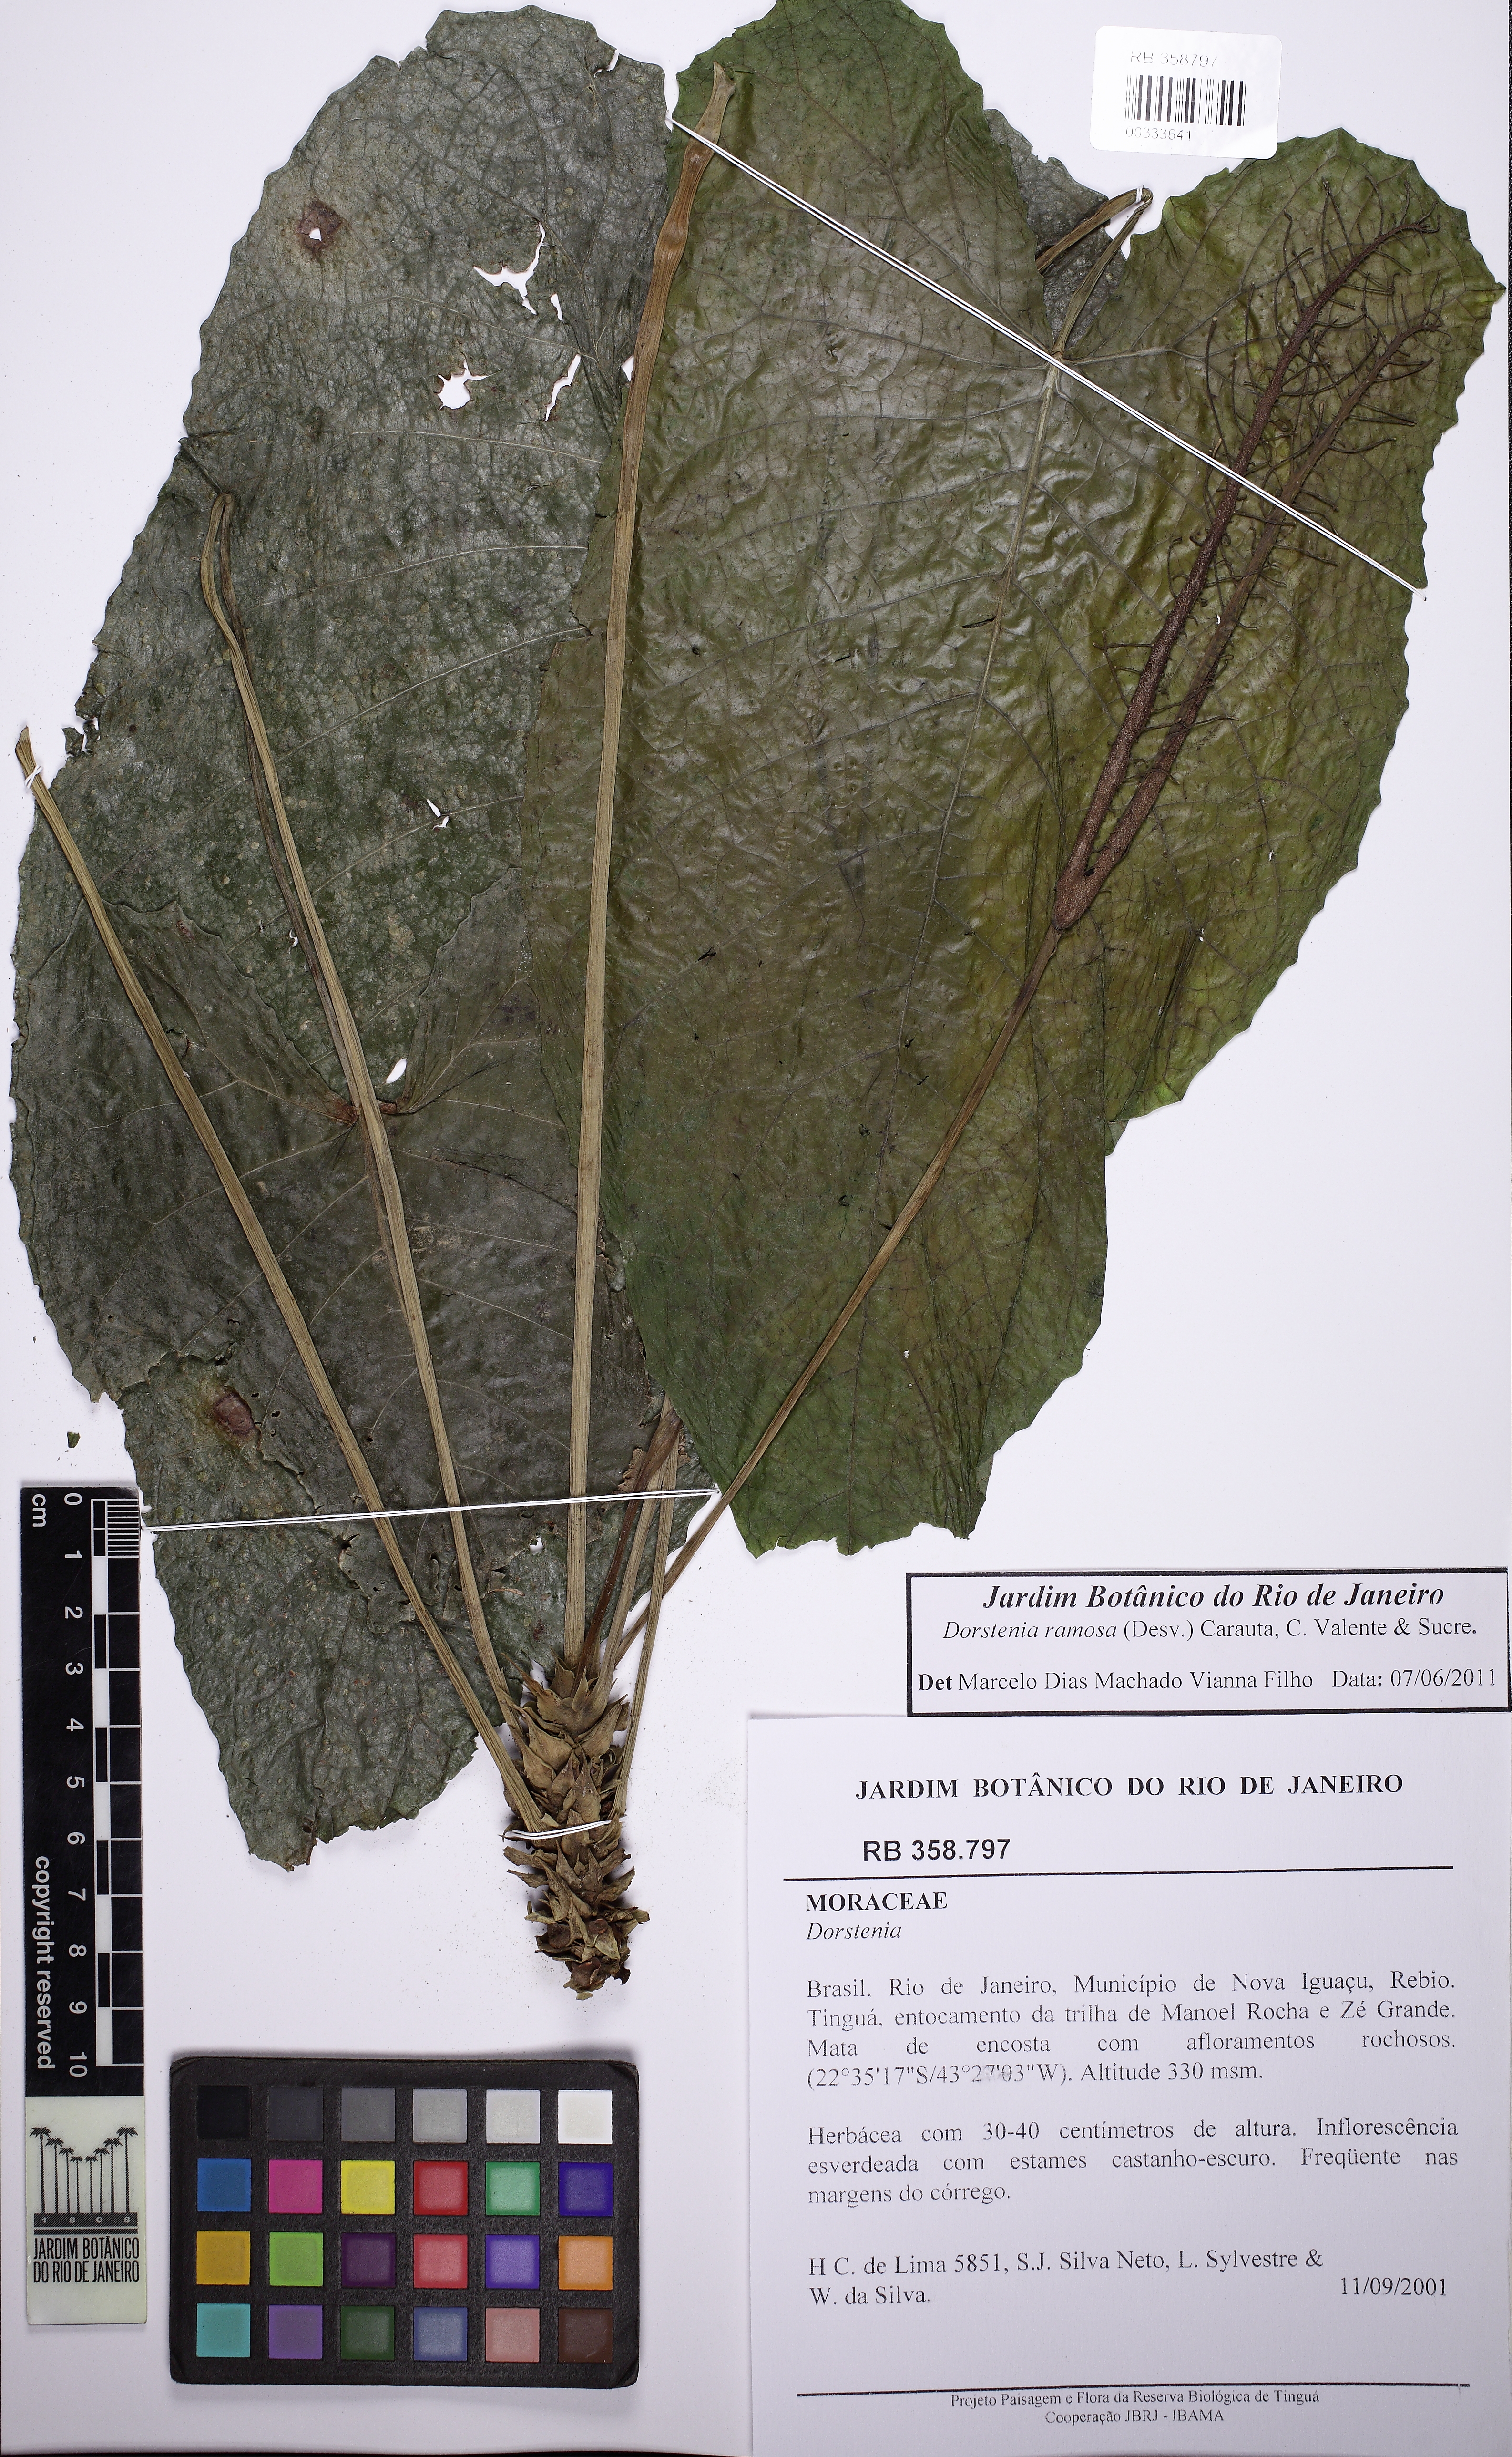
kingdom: Plantae
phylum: Tracheophyta
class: Magnoliopsida
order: Rosales
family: Moraceae
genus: Dorstenia
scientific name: Dorstenia ramosa
